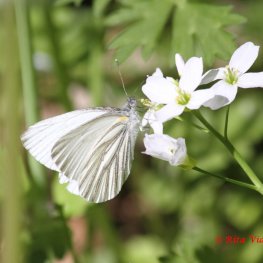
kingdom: Animalia
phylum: Arthropoda
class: Insecta
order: Lepidoptera
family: Pieridae
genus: Pieris
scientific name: Pieris oleracea
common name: Mustard White
